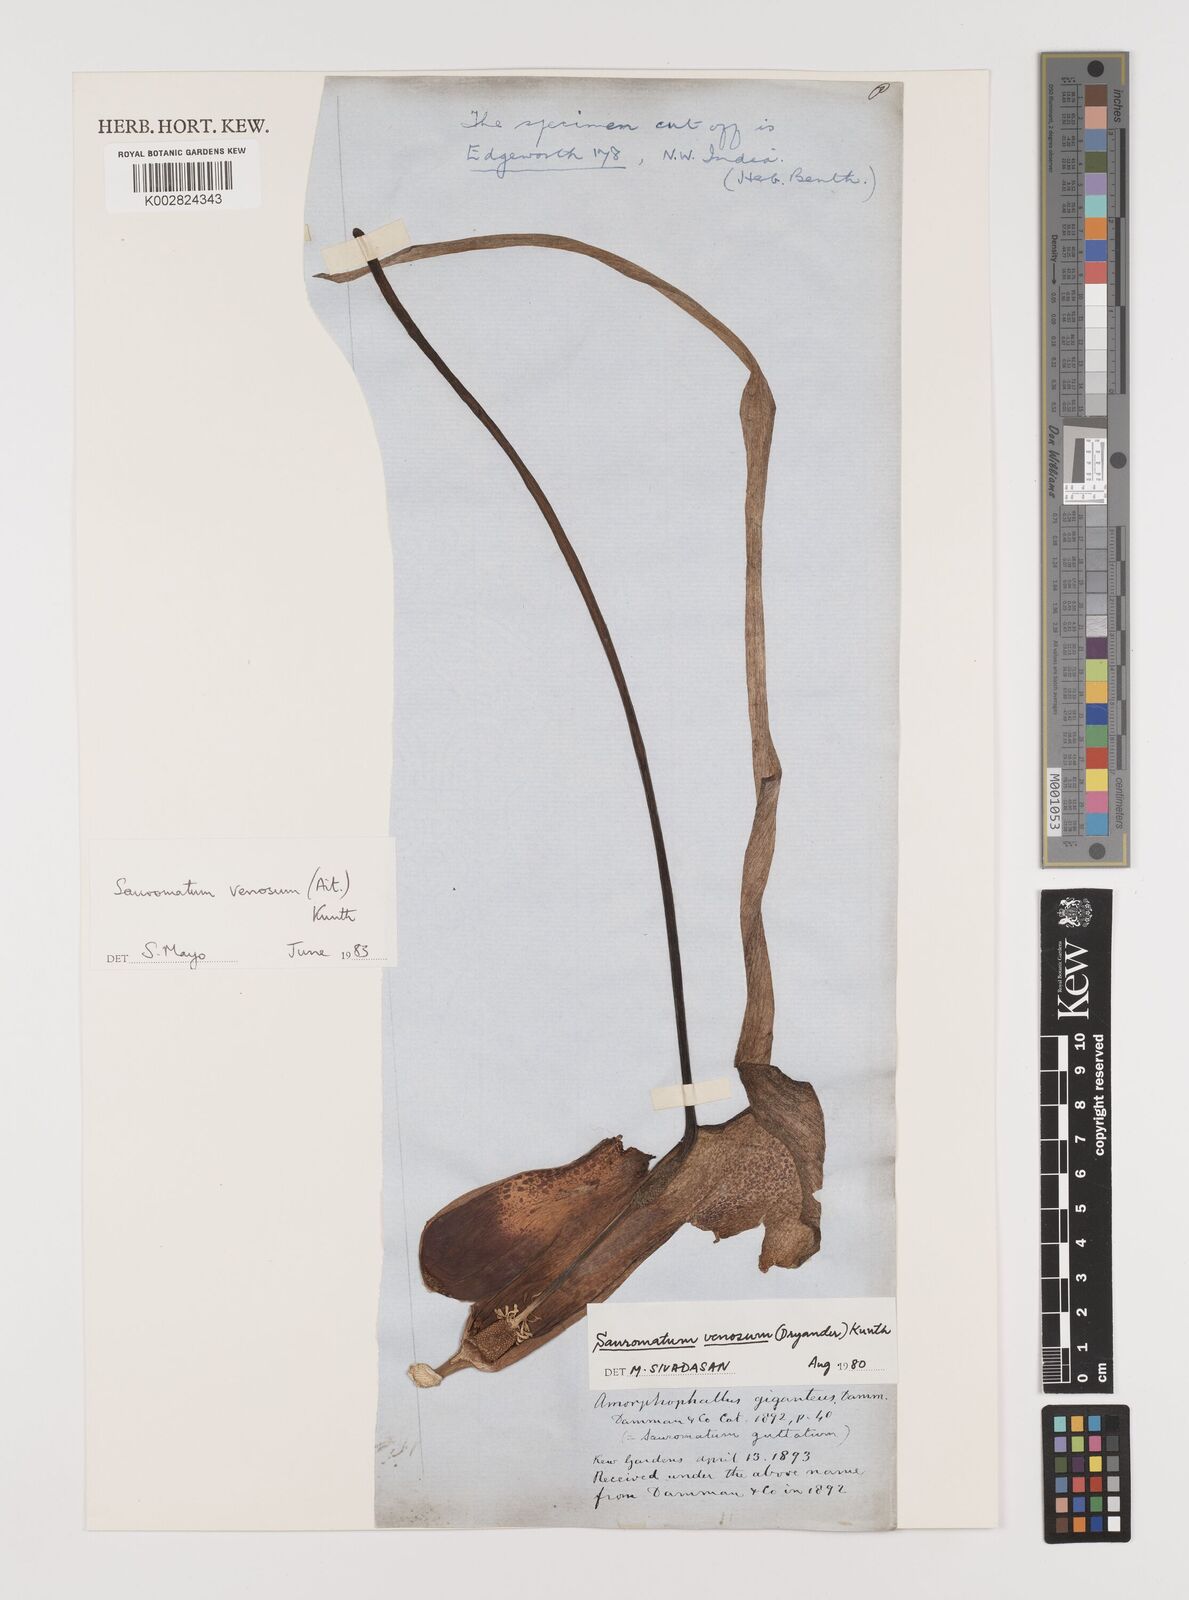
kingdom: Plantae
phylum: Tracheophyta
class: Liliopsida
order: Alismatales
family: Araceae
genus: Sauromatum
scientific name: Sauromatum venosum
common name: Voodoo lily
